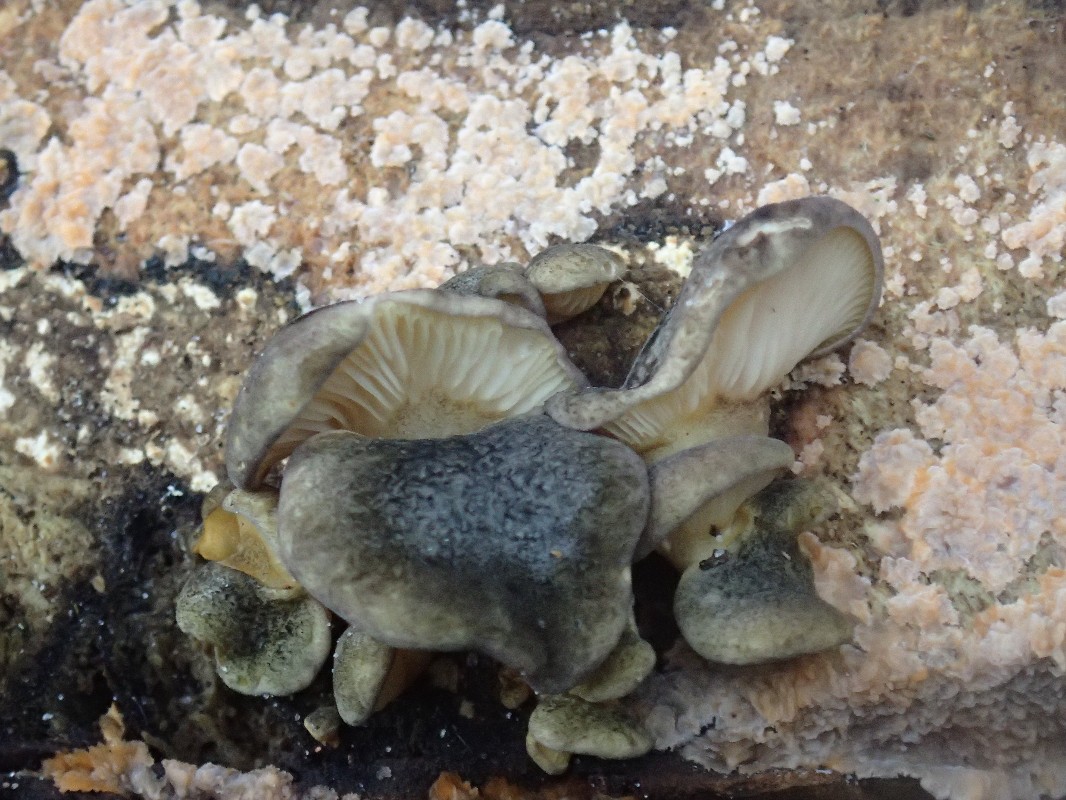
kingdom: Fungi
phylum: Basidiomycota
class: Agaricomycetes
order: Agaricales
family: Sarcomyxaceae
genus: Sarcomyxa
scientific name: Sarcomyxa serotina
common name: gummihat
